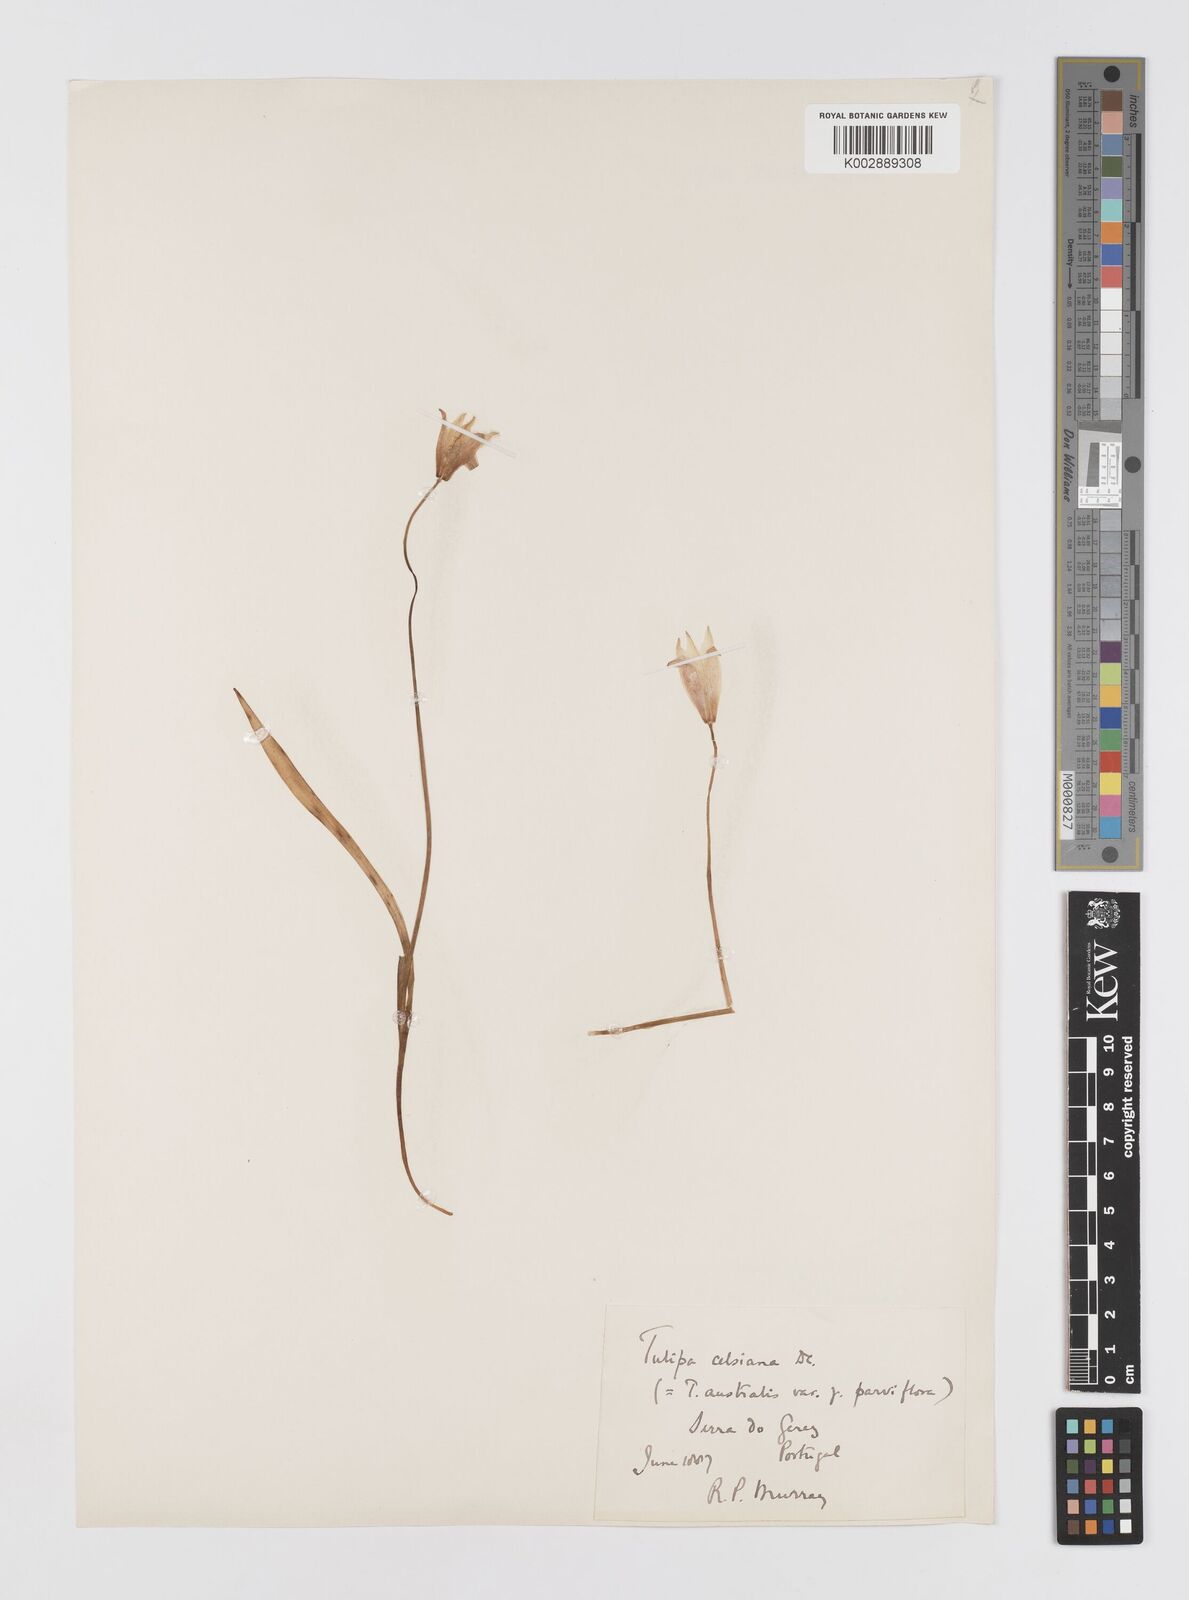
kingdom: Plantae
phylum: Tracheophyta
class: Liliopsida
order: Liliales
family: Liliaceae
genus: Tulipa
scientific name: Tulipa sylvestris
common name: Wild tulip
